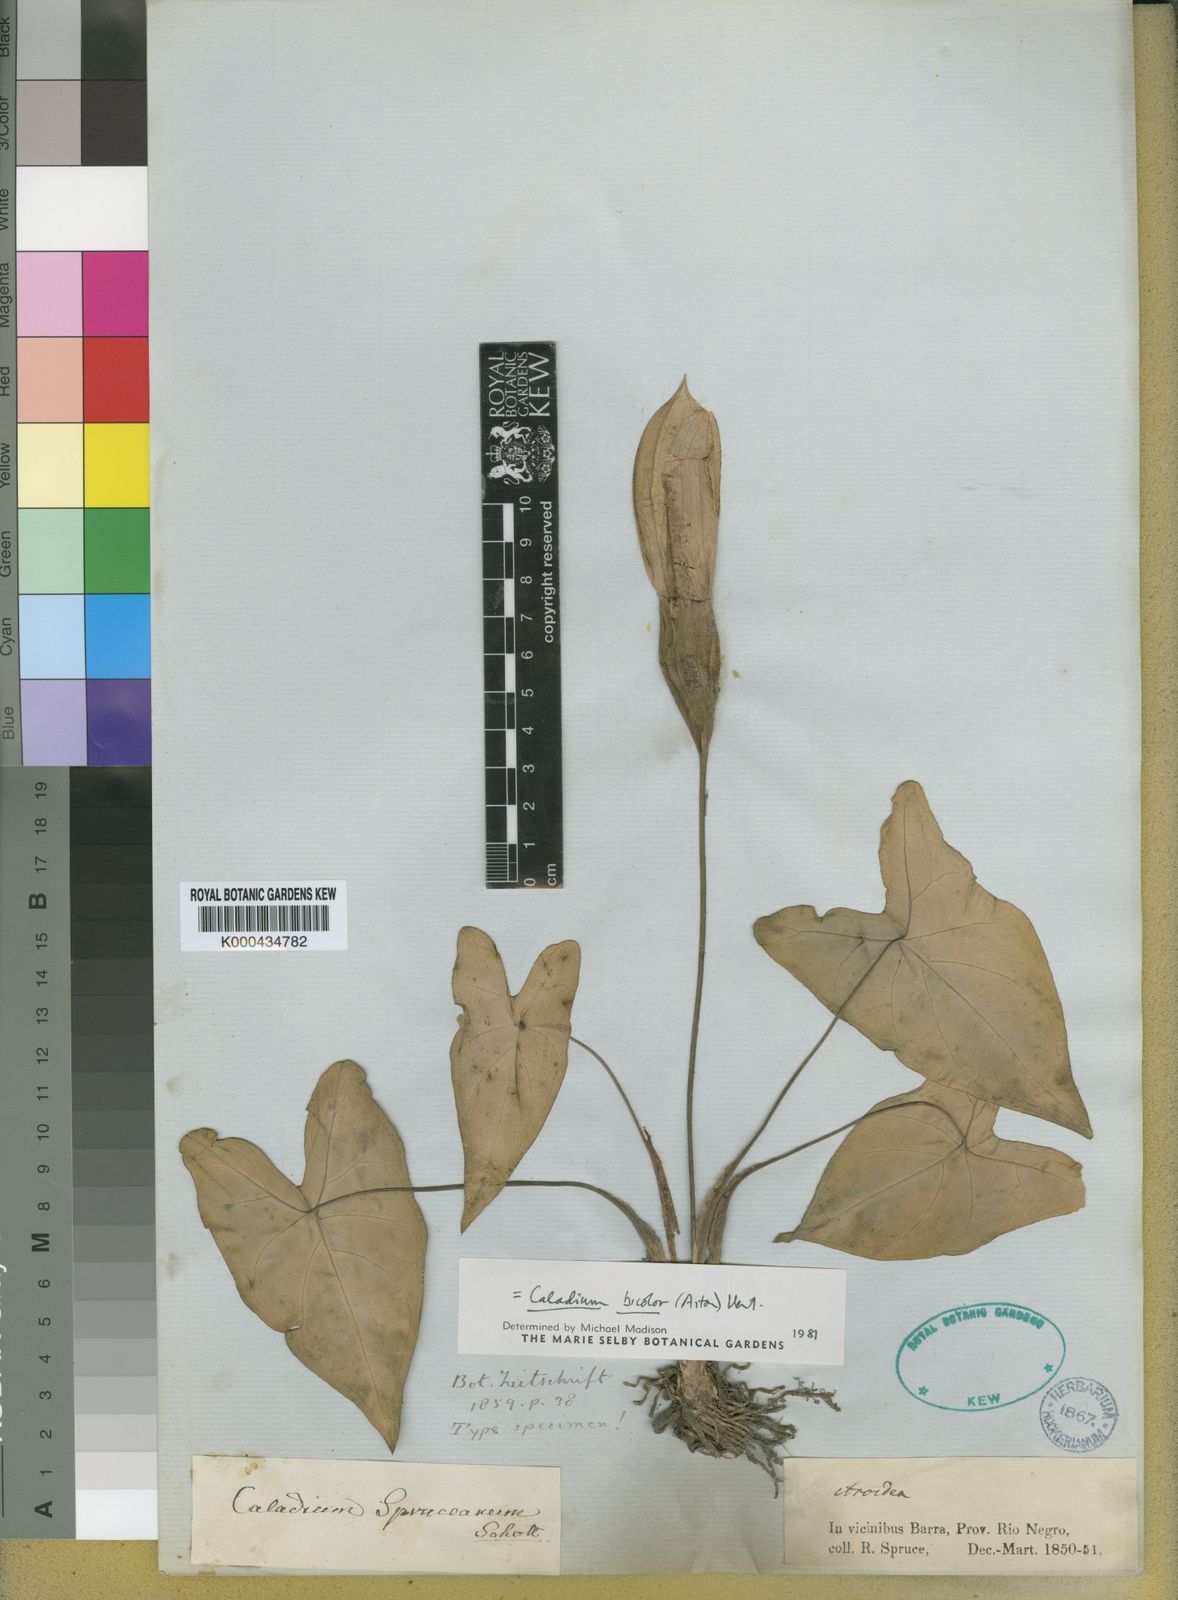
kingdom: Plantae
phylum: Tracheophyta
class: Liliopsida
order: Alismatales
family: Araceae
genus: Caladium
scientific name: Caladium bicolor
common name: Artist's pallet
